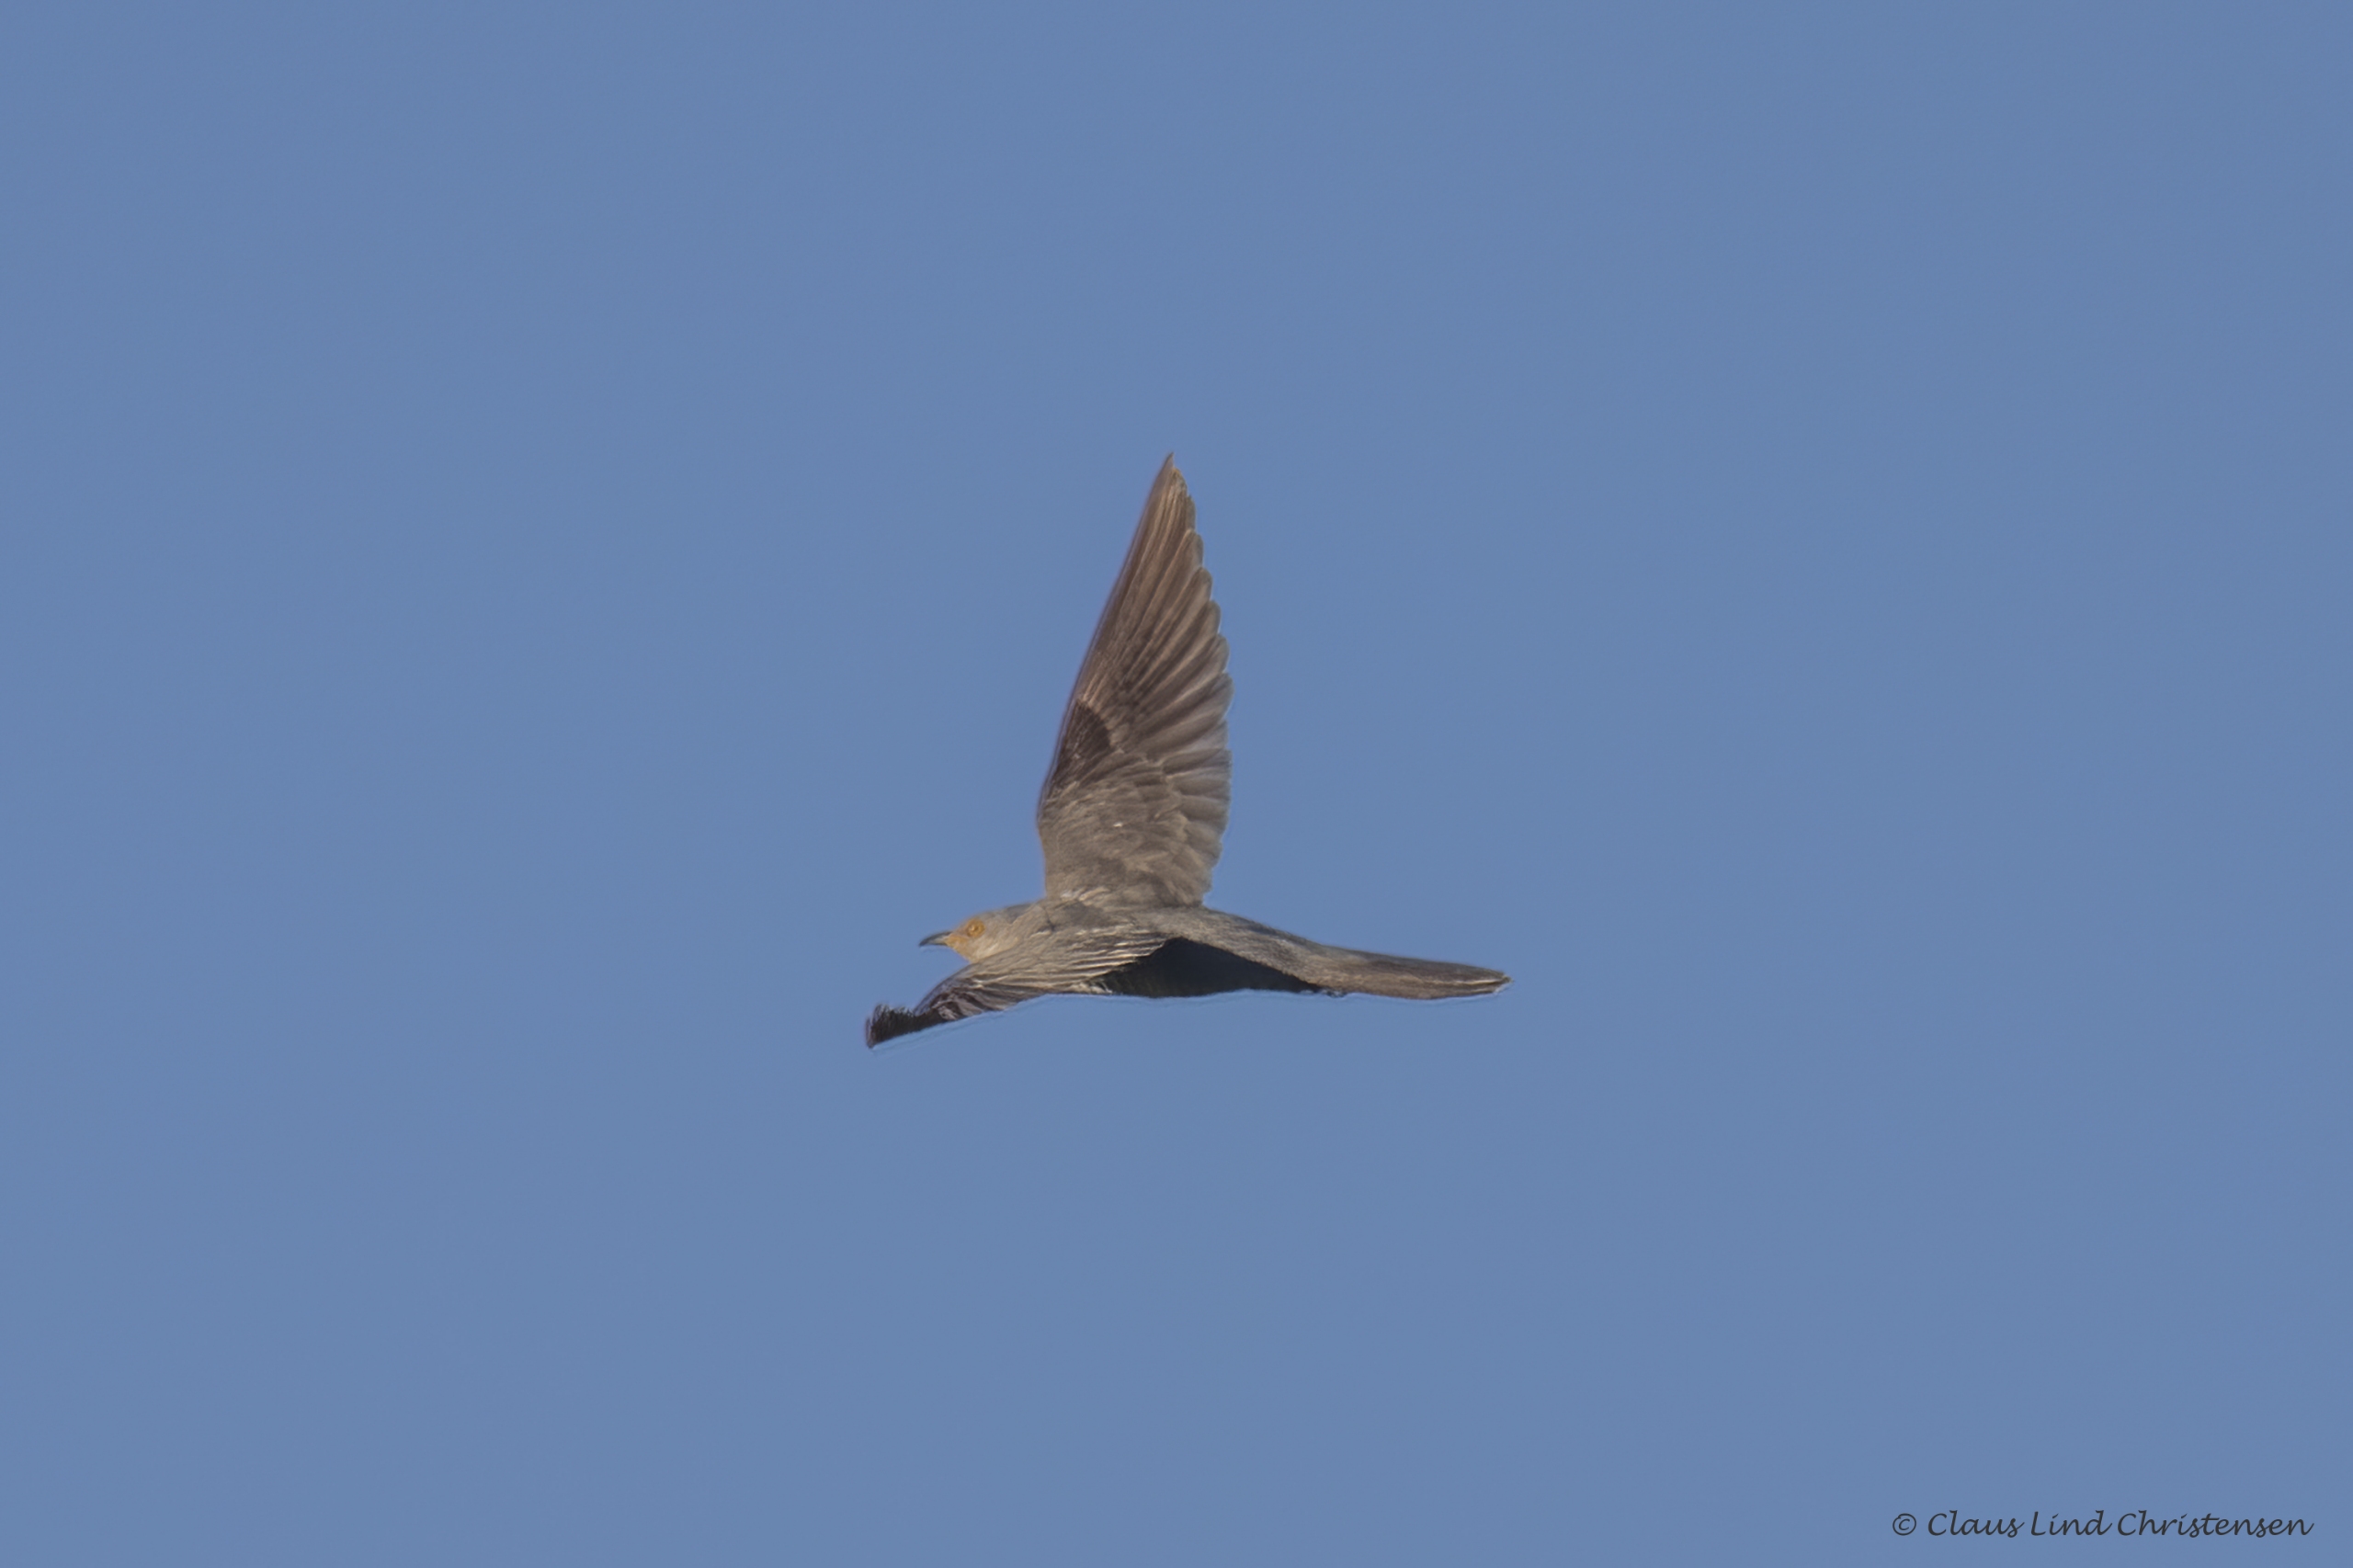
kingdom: Animalia
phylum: Chordata
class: Aves
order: Cuculiformes
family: Cuculidae
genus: Cuculus
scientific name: Cuculus canorus
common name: Gøg
